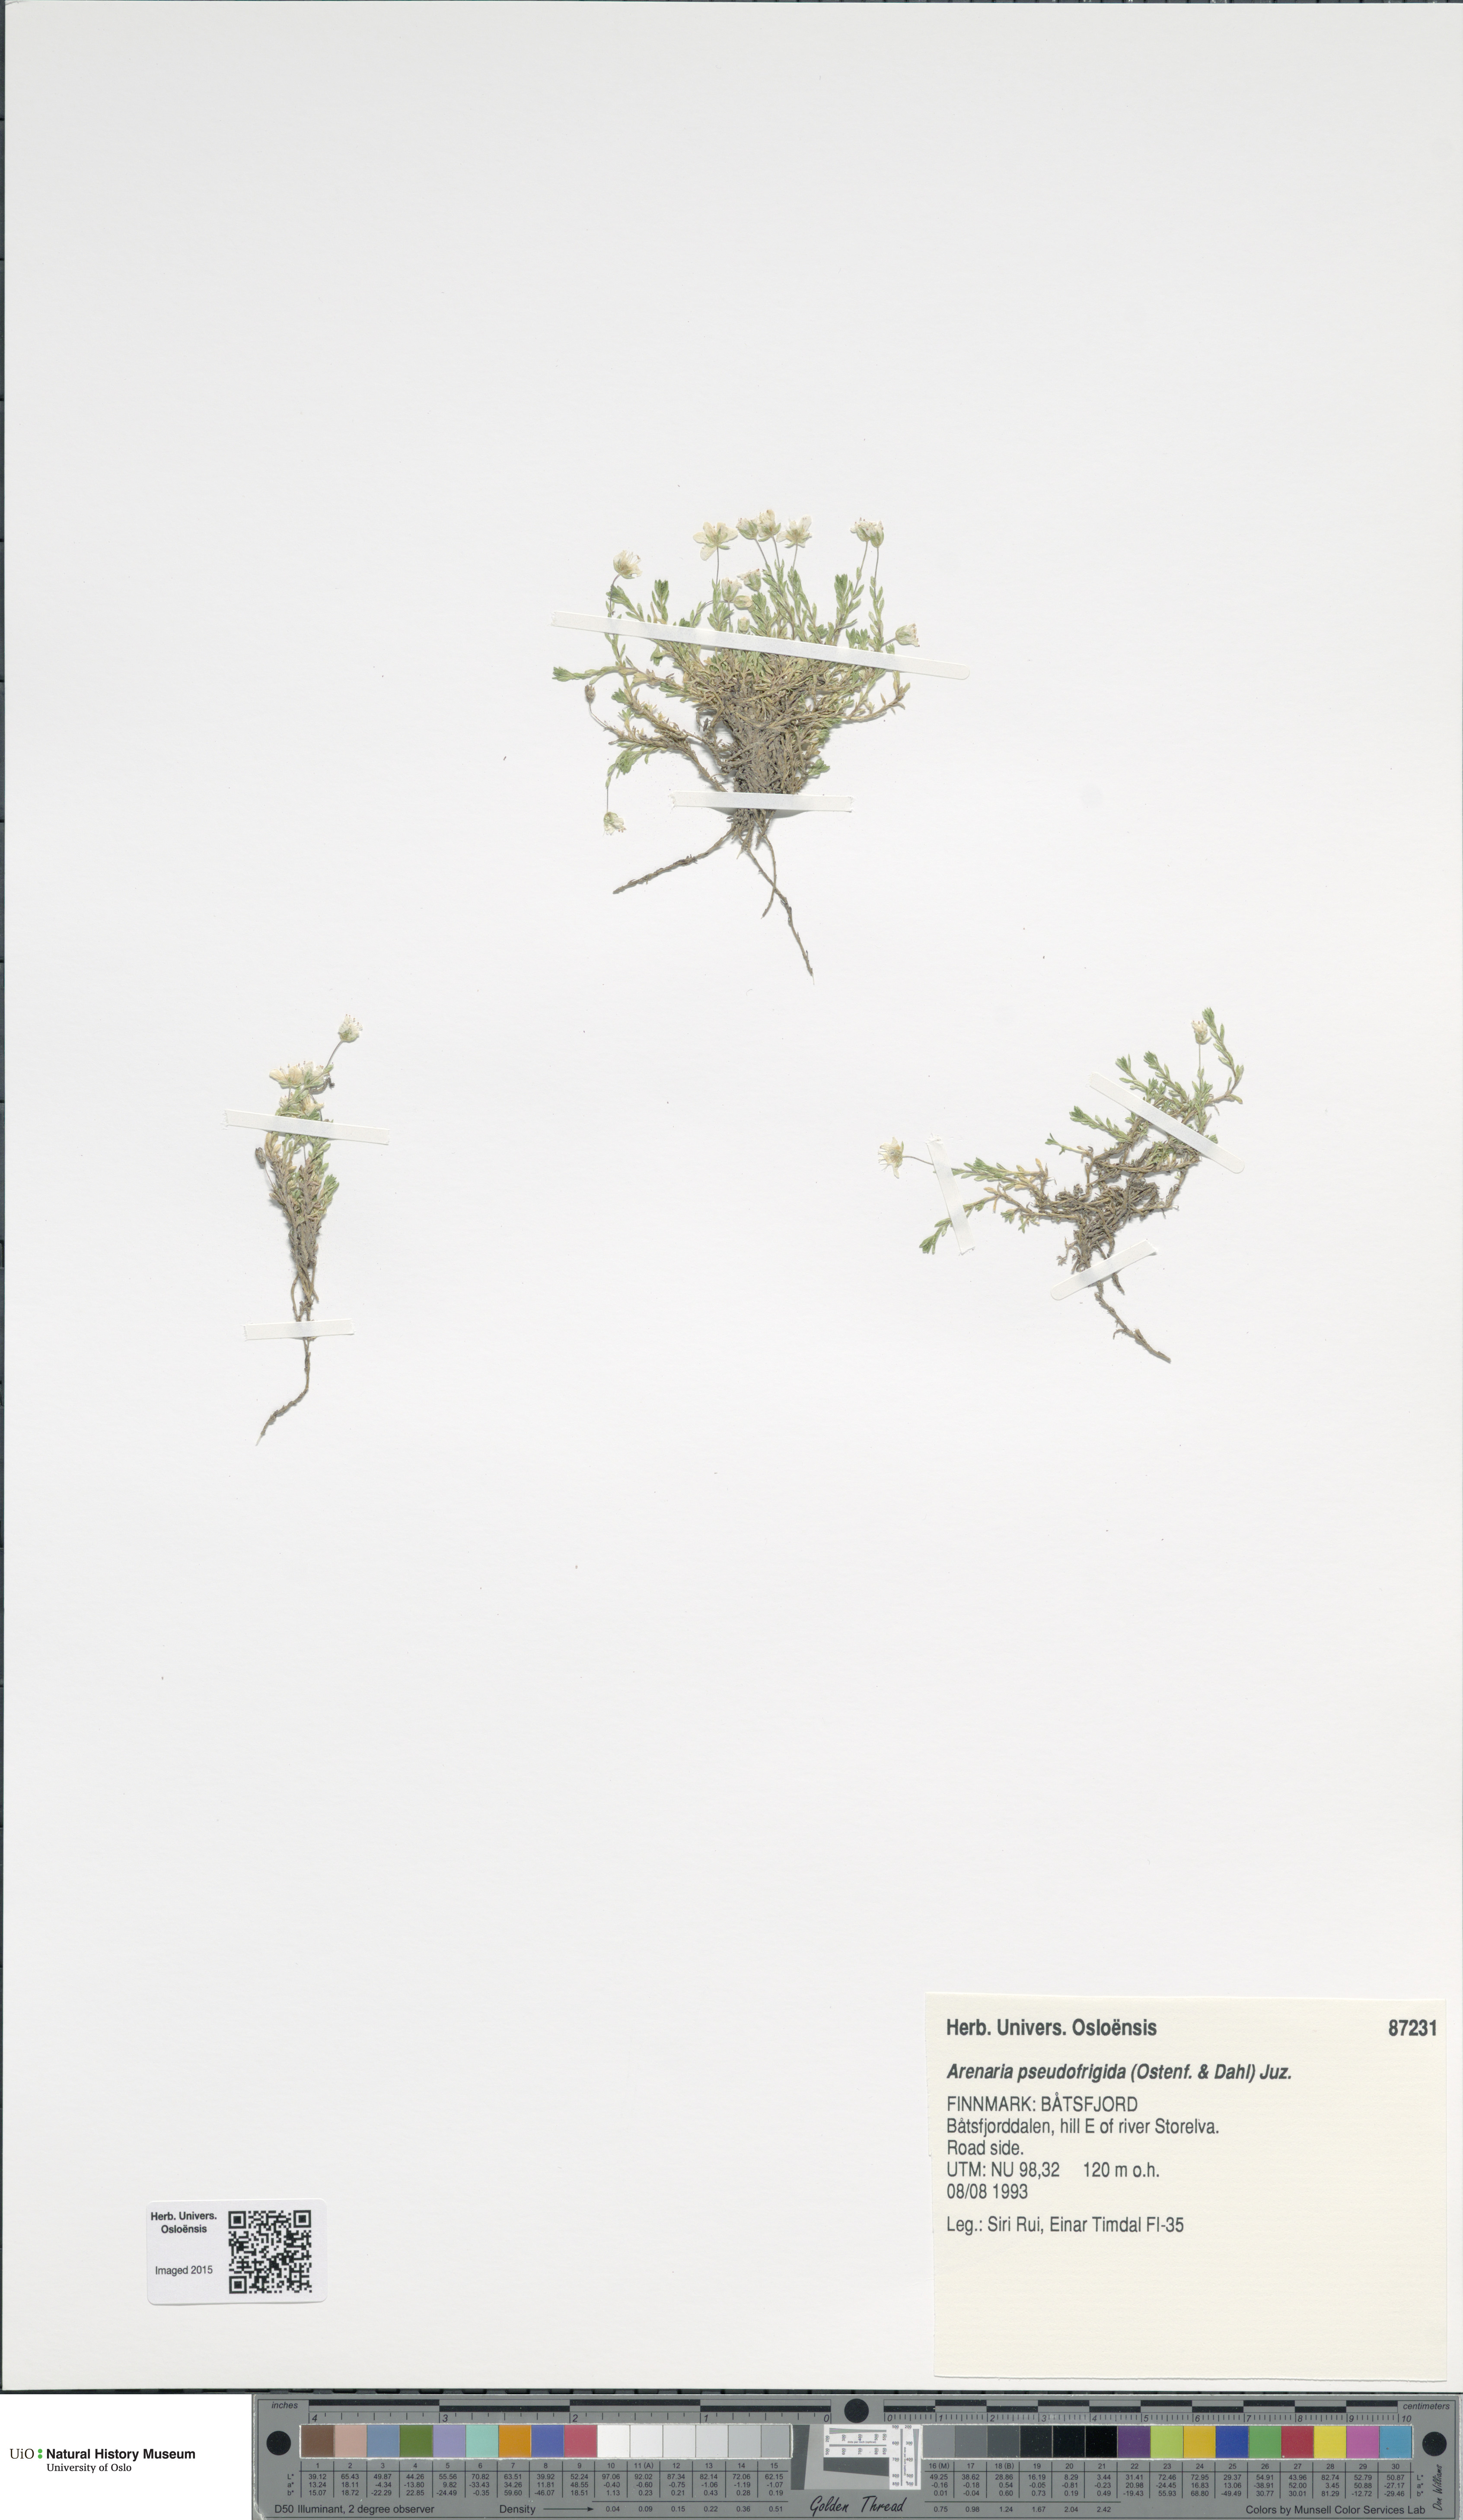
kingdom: Plantae
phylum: Tracheophyta
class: Magnoliopsida
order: Caryophyllales
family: Caryophyllaceae
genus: Arenaria
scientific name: Arenaria pseudofrigida
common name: Tundra sandwort
